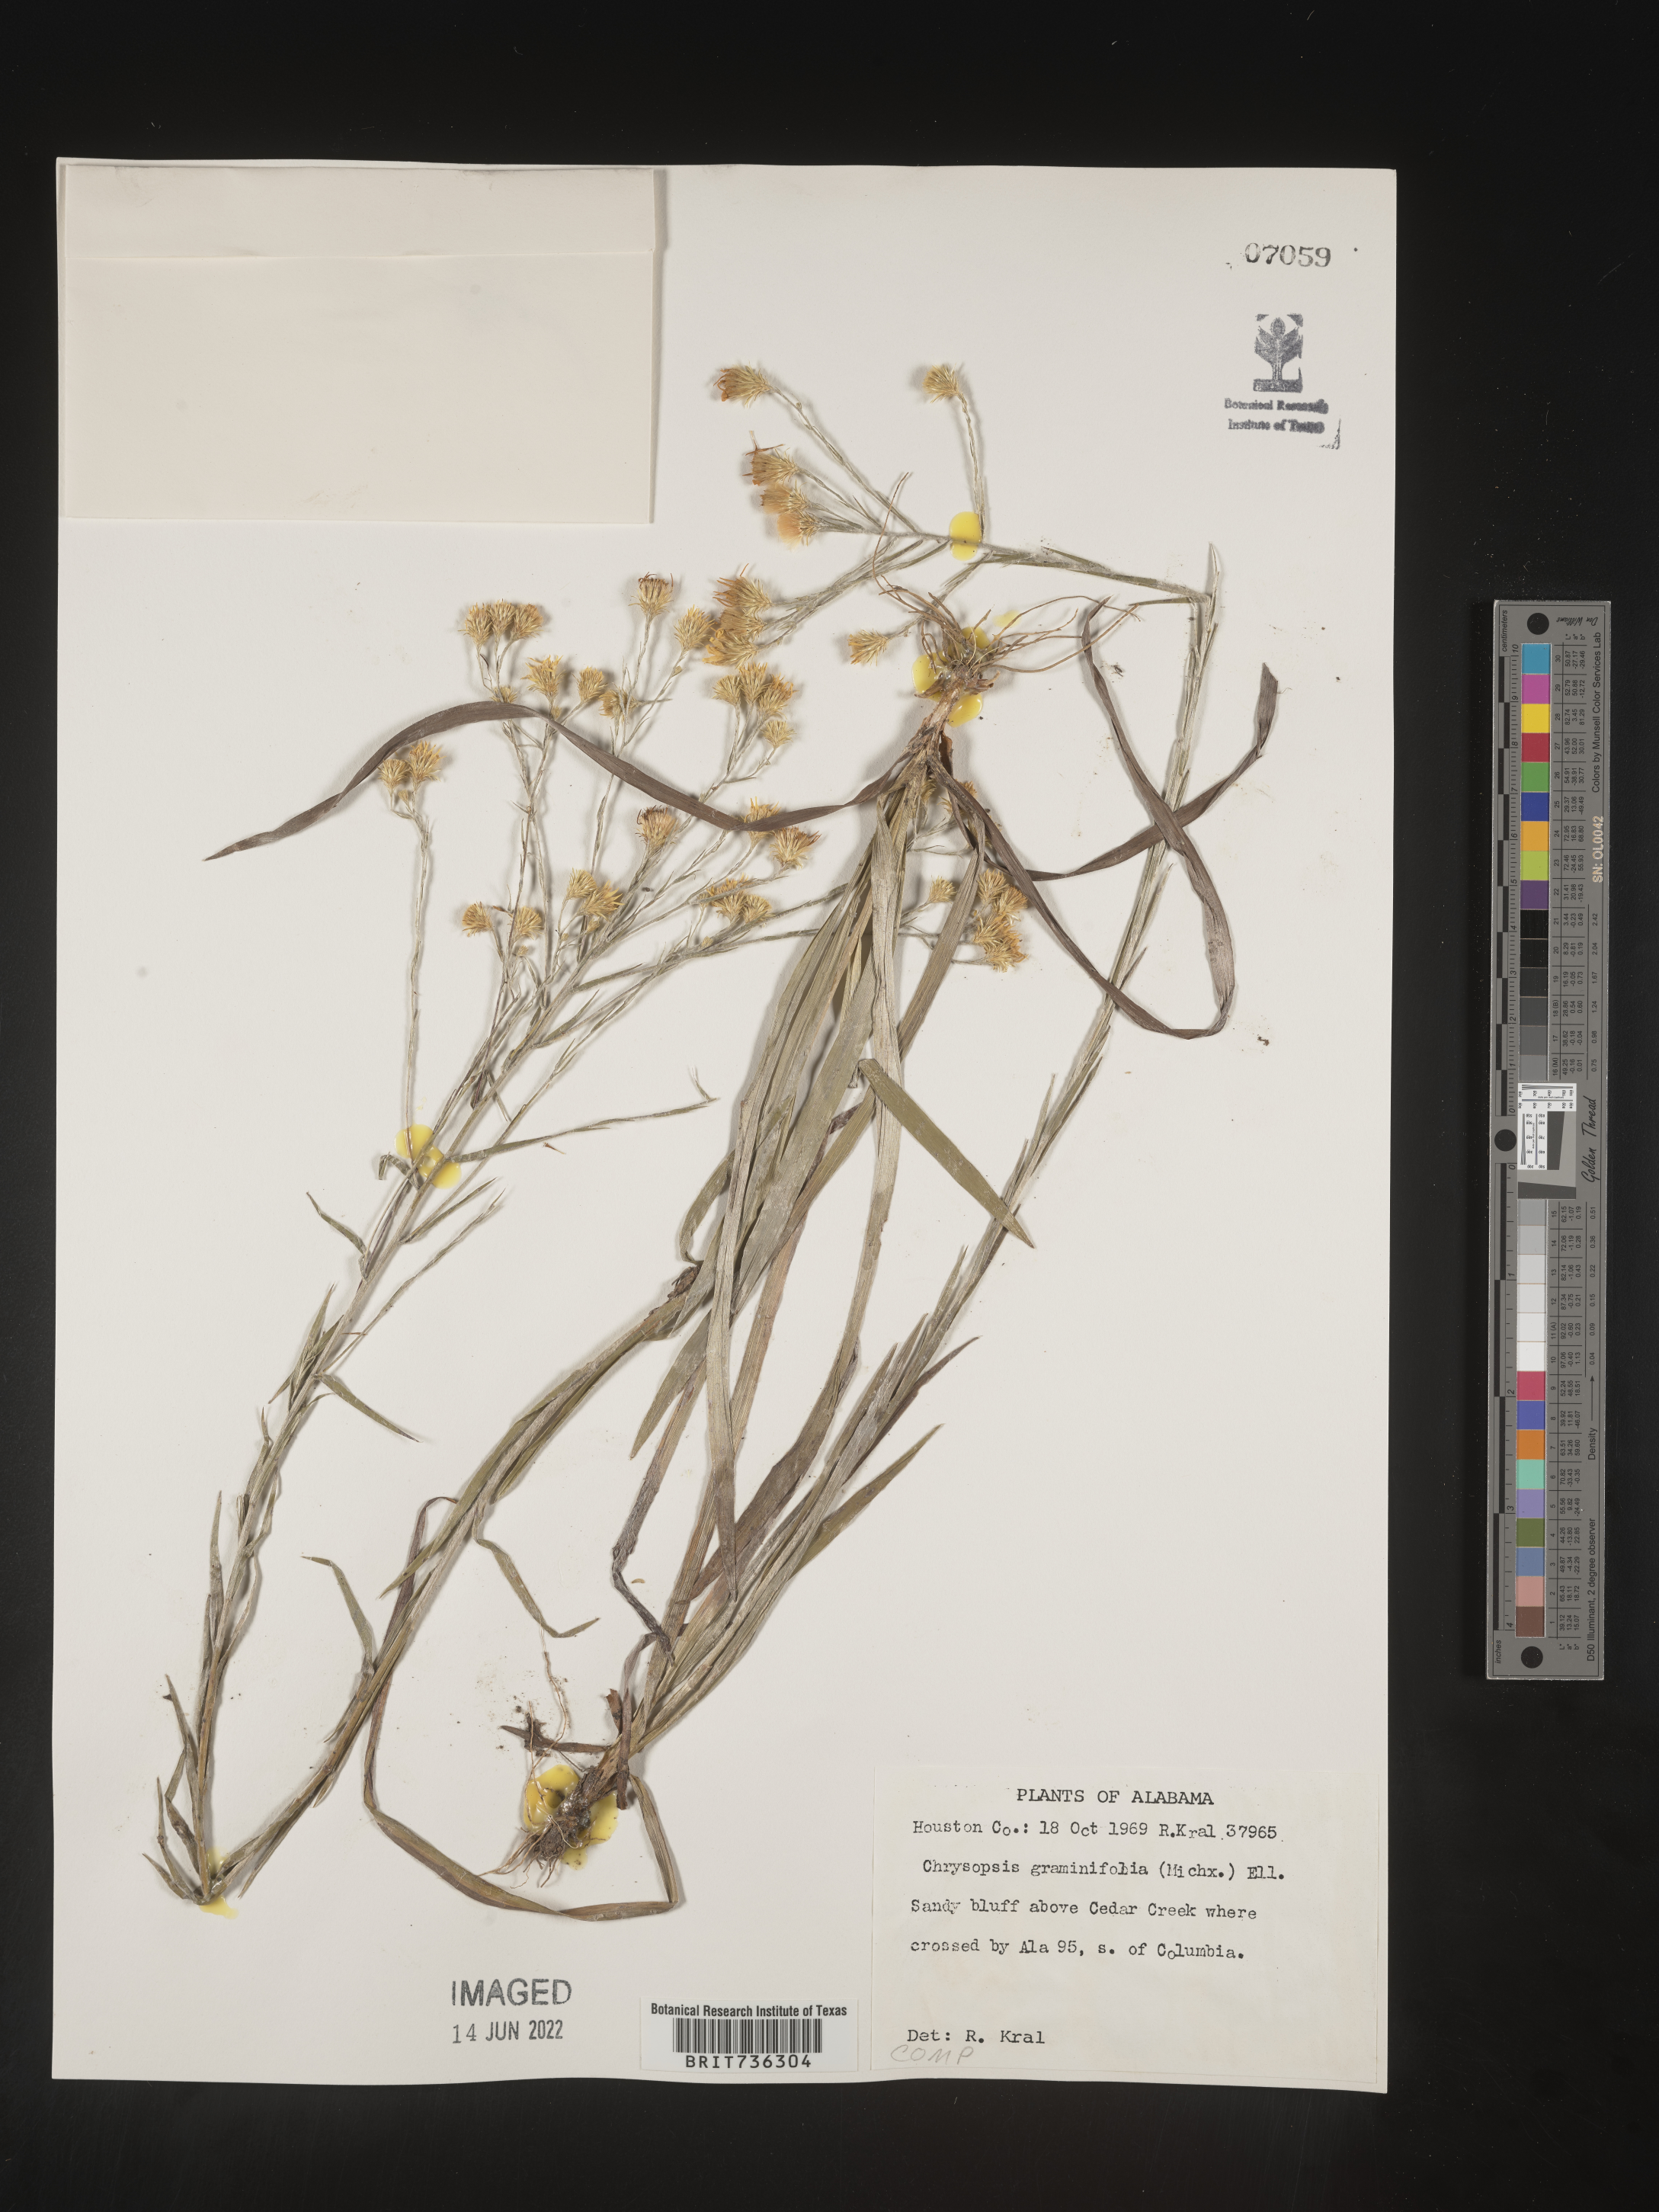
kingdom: Plantae
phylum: Tracheophyta
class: Magnoliopsida
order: Asterales
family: Asteraceae
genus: Pityopsis
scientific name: Pityopsis microcephala
